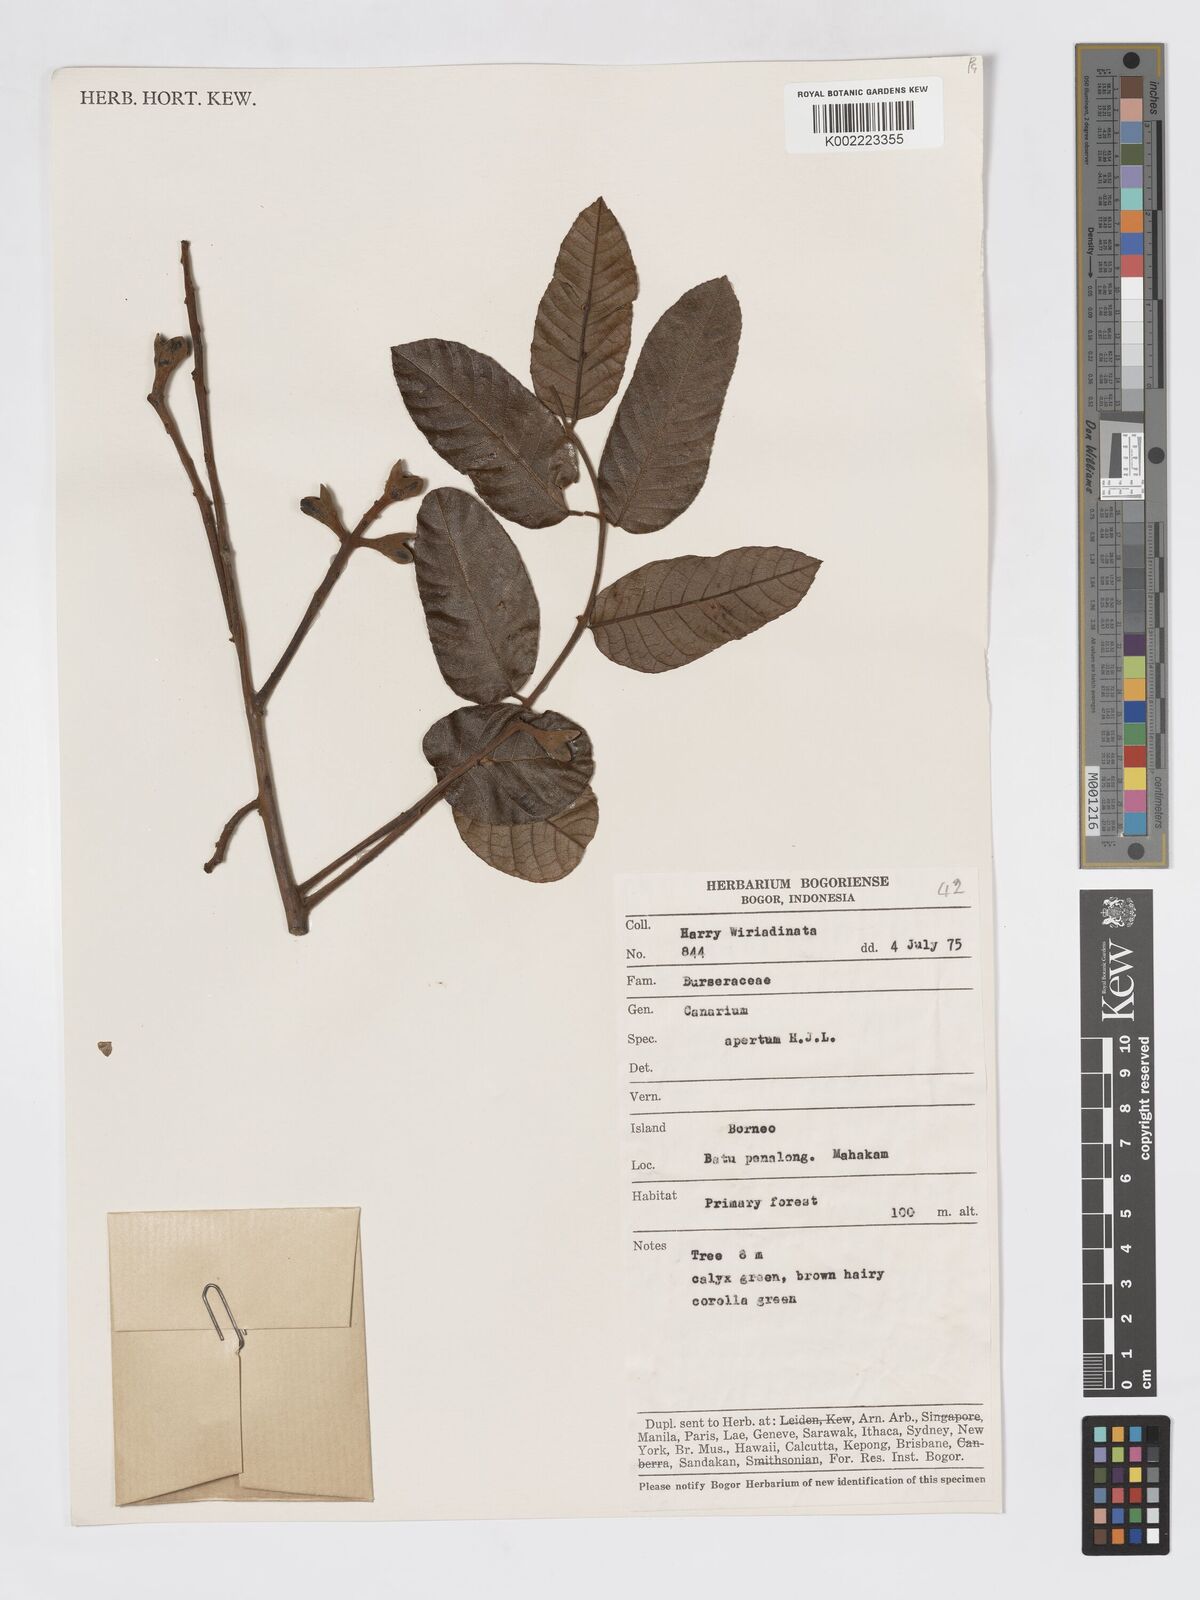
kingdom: Plantae
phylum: Tracheophyta
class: Magnoliopsida
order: Sapindales
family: Burseraceae
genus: Canarium
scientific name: Canarium apertum
